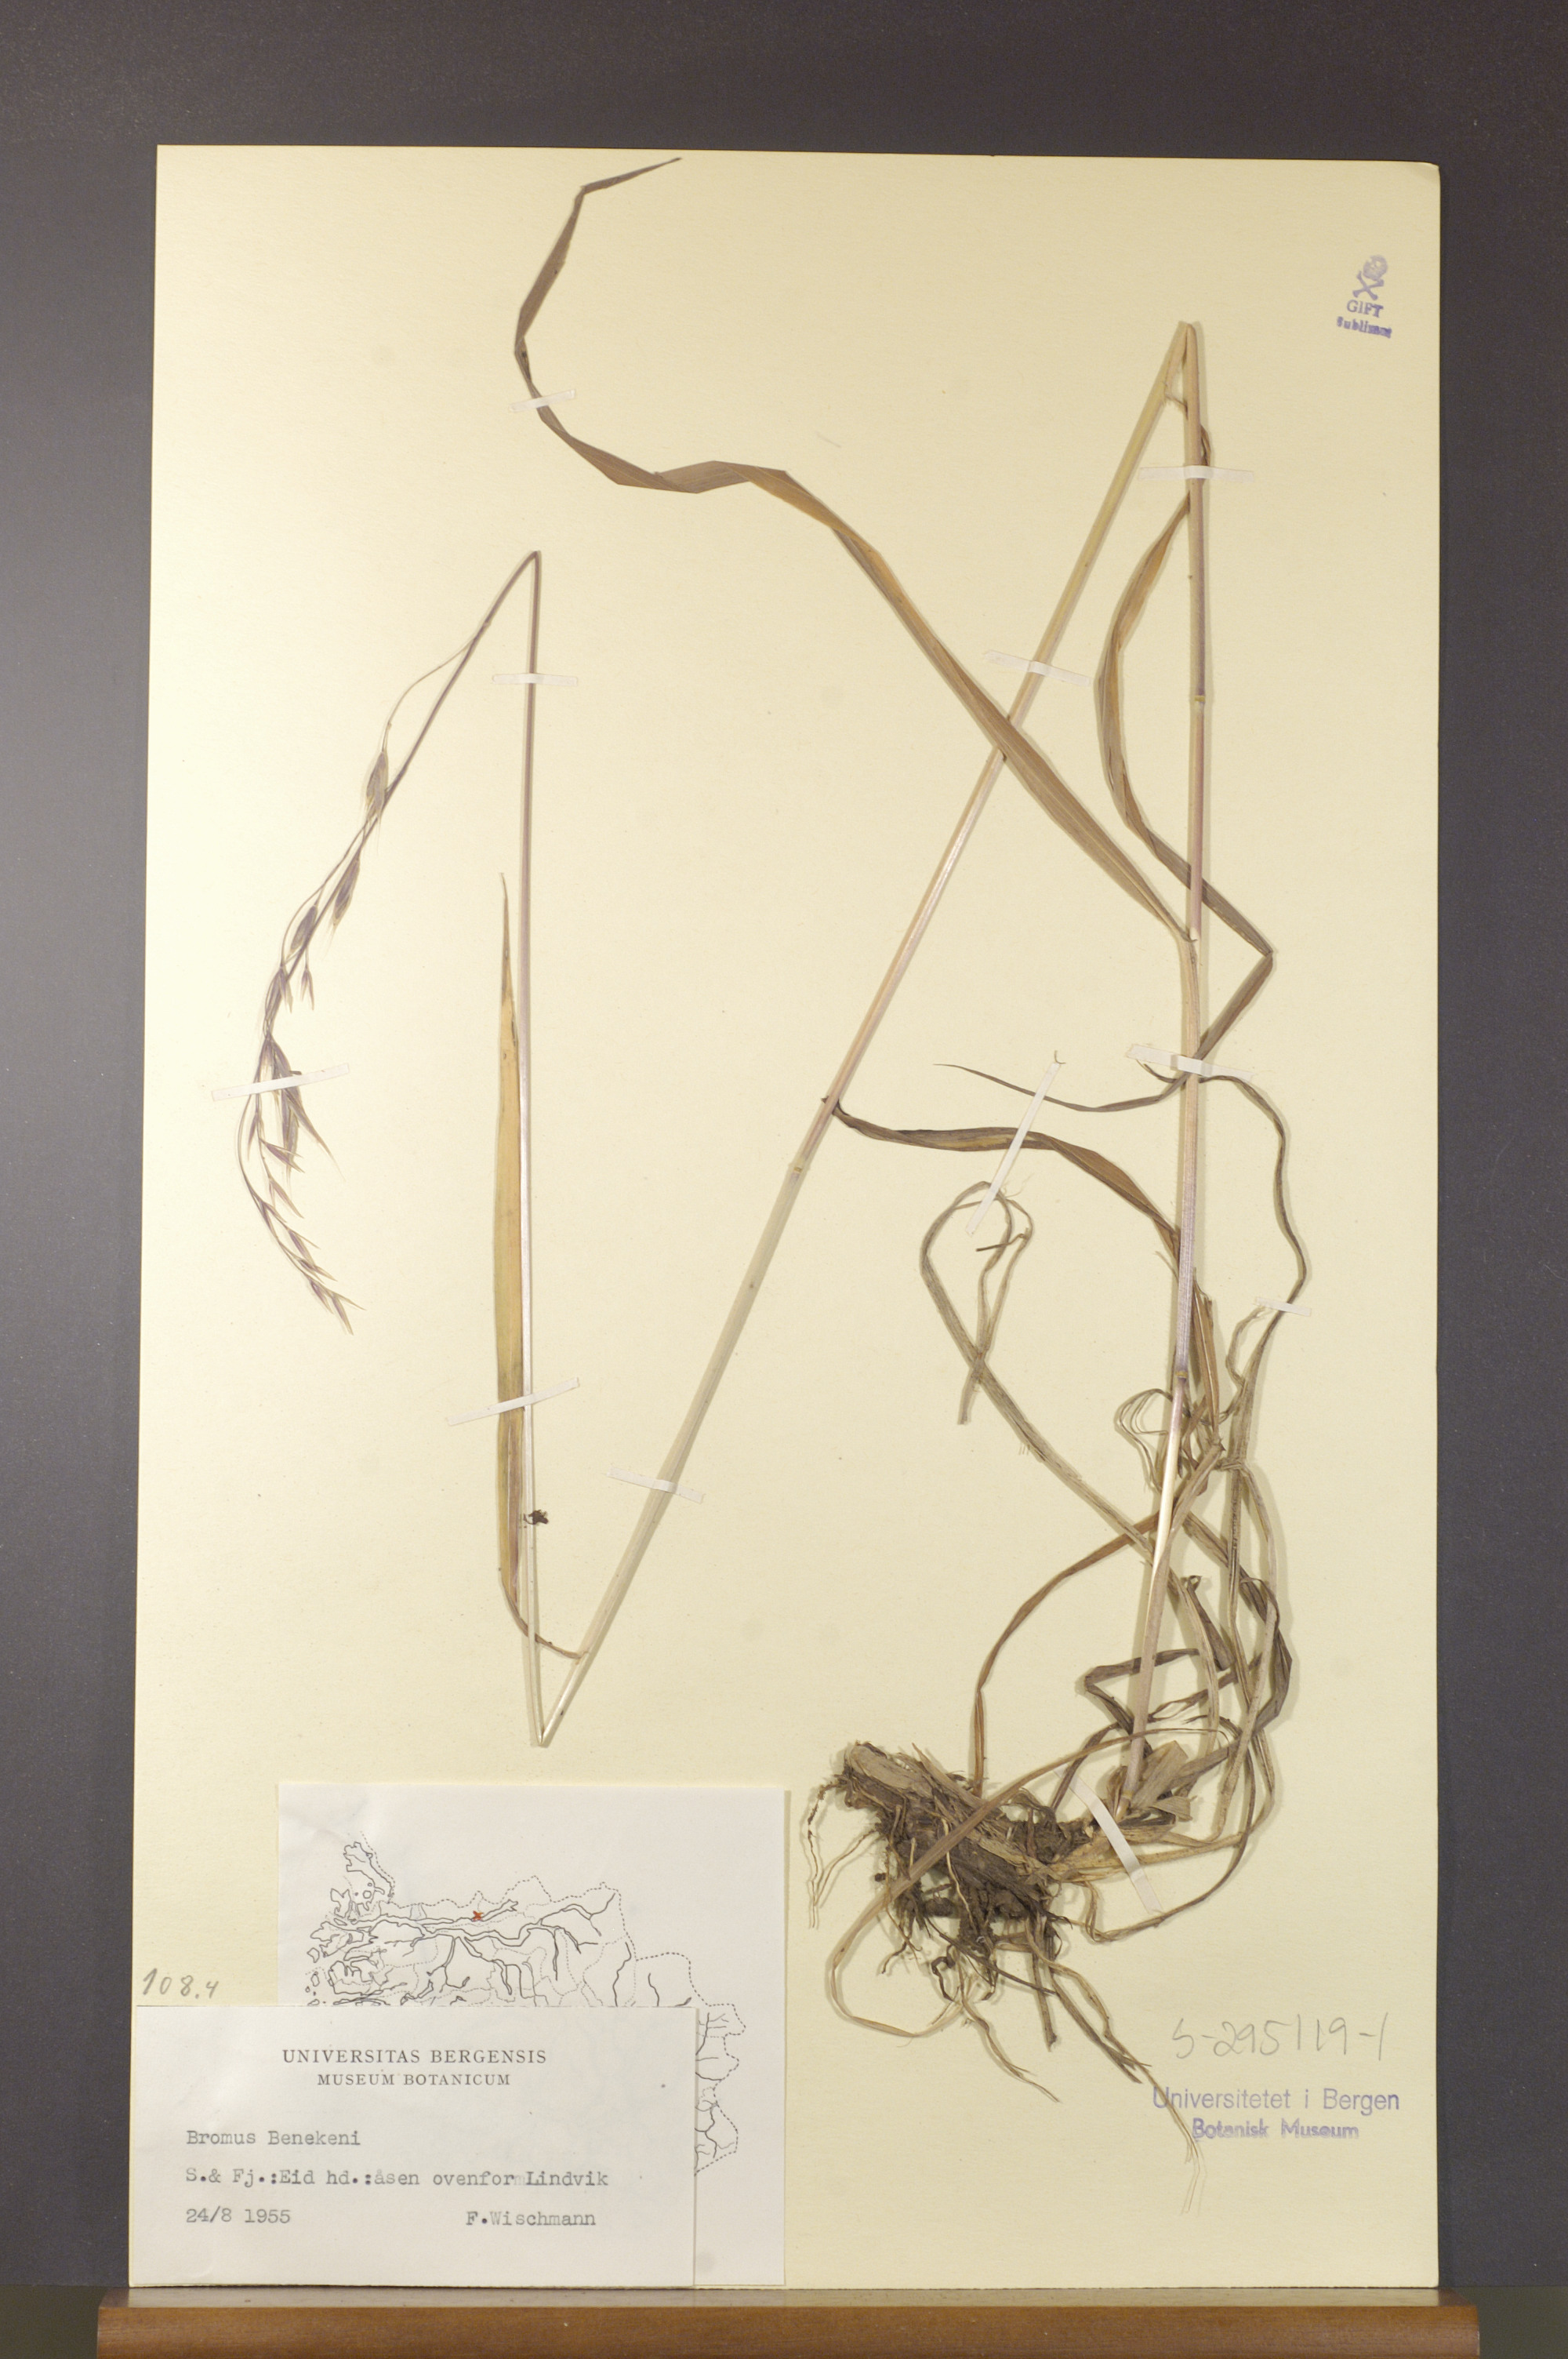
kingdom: Plantae
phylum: Tracheophyta
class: Liliopsida
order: Poales
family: Poaceae
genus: Bromus
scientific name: Bromus benekenii
